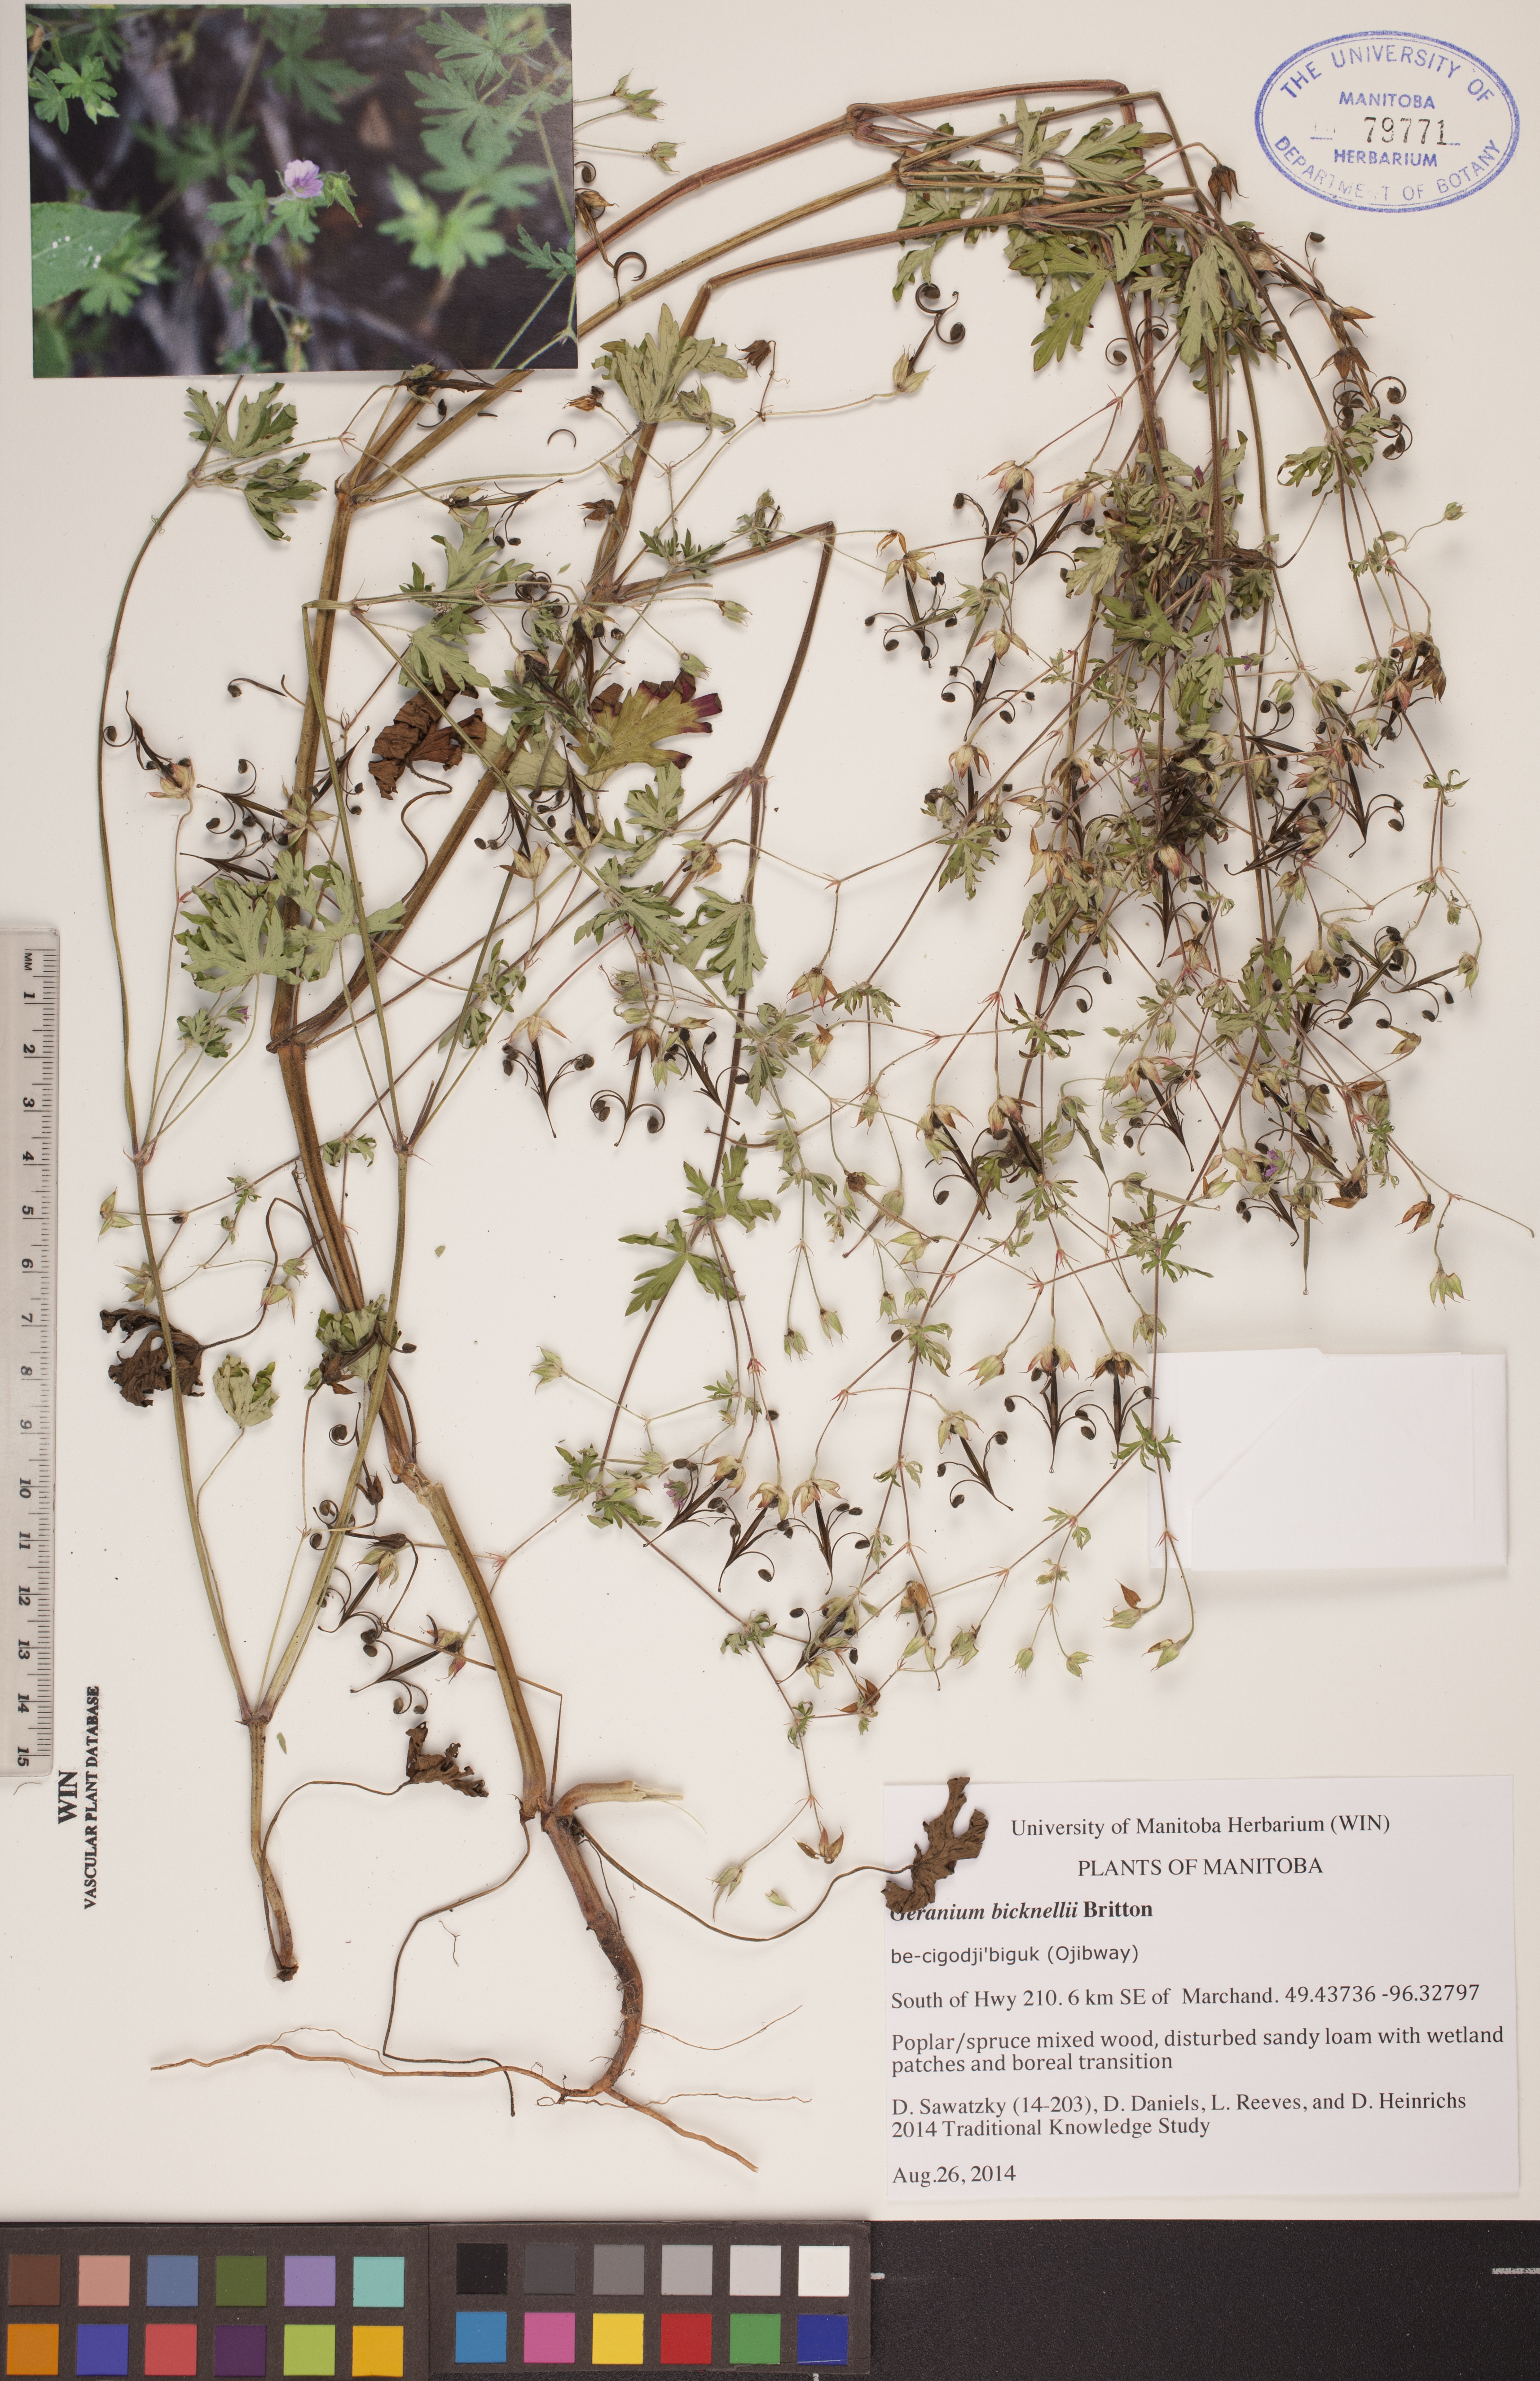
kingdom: Plantae
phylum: Tracheophyta
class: Magnoliopsida
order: Geraniales
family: Geraniaceae
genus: Geranium
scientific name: Geranium bicknellii
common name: Bicknell's cranesbill
